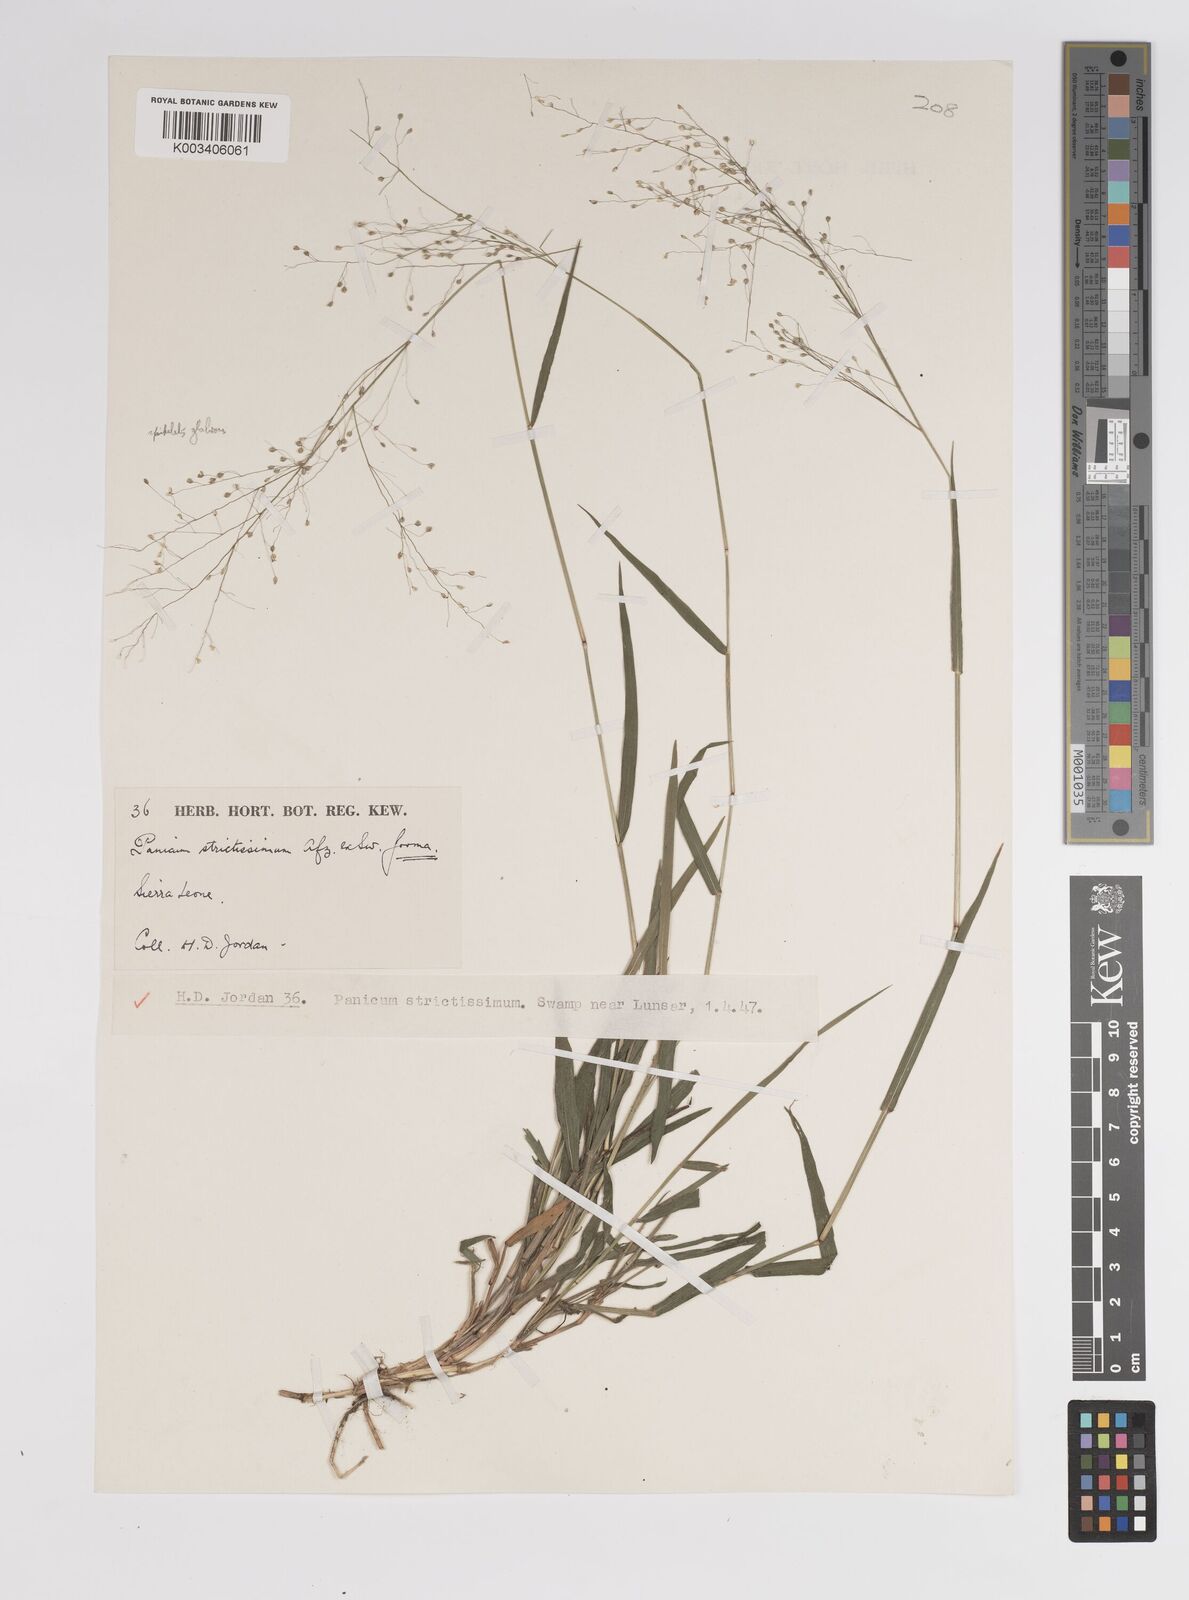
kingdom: Plantae
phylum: Tracheophyta
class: Liliopsida
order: Poales
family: Poaceae
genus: Panicum
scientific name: Panicum eickii
